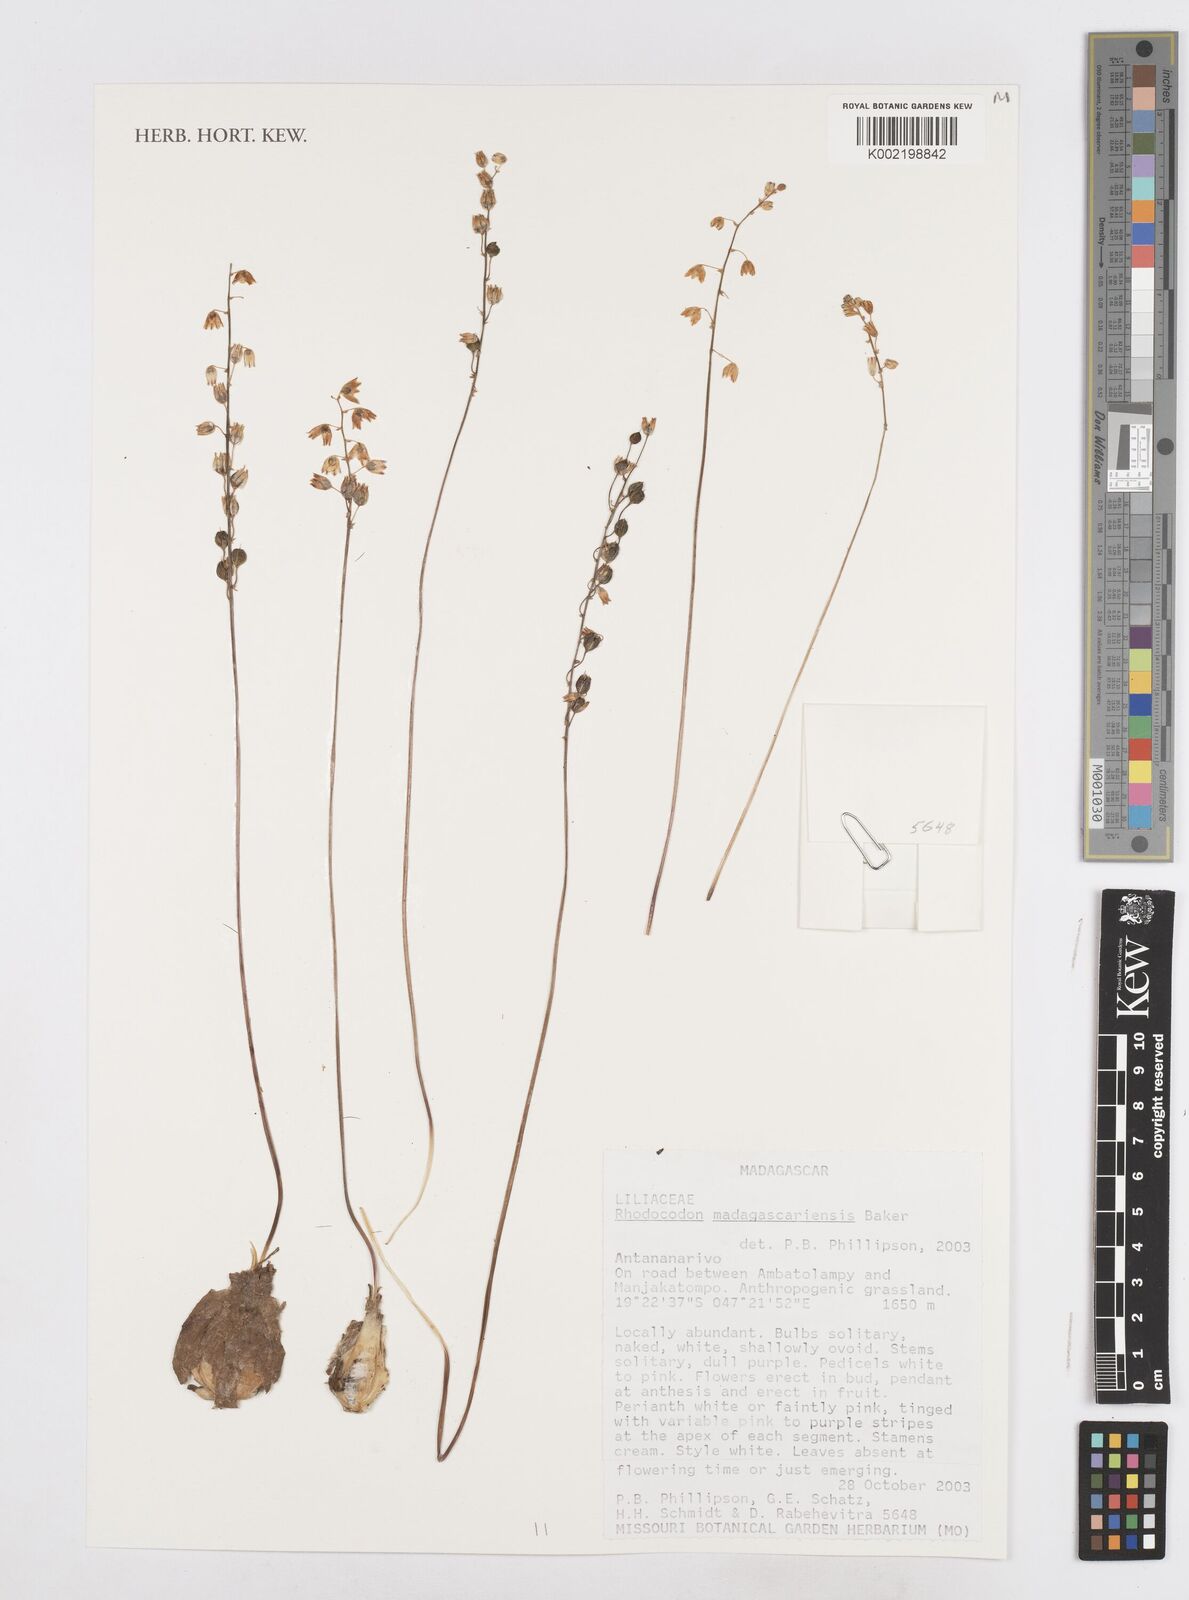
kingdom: Plantae
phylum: Tracheophyta
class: Liliopsida
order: Asparagales
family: Asparagaceae
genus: Drimia
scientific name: Drimia
